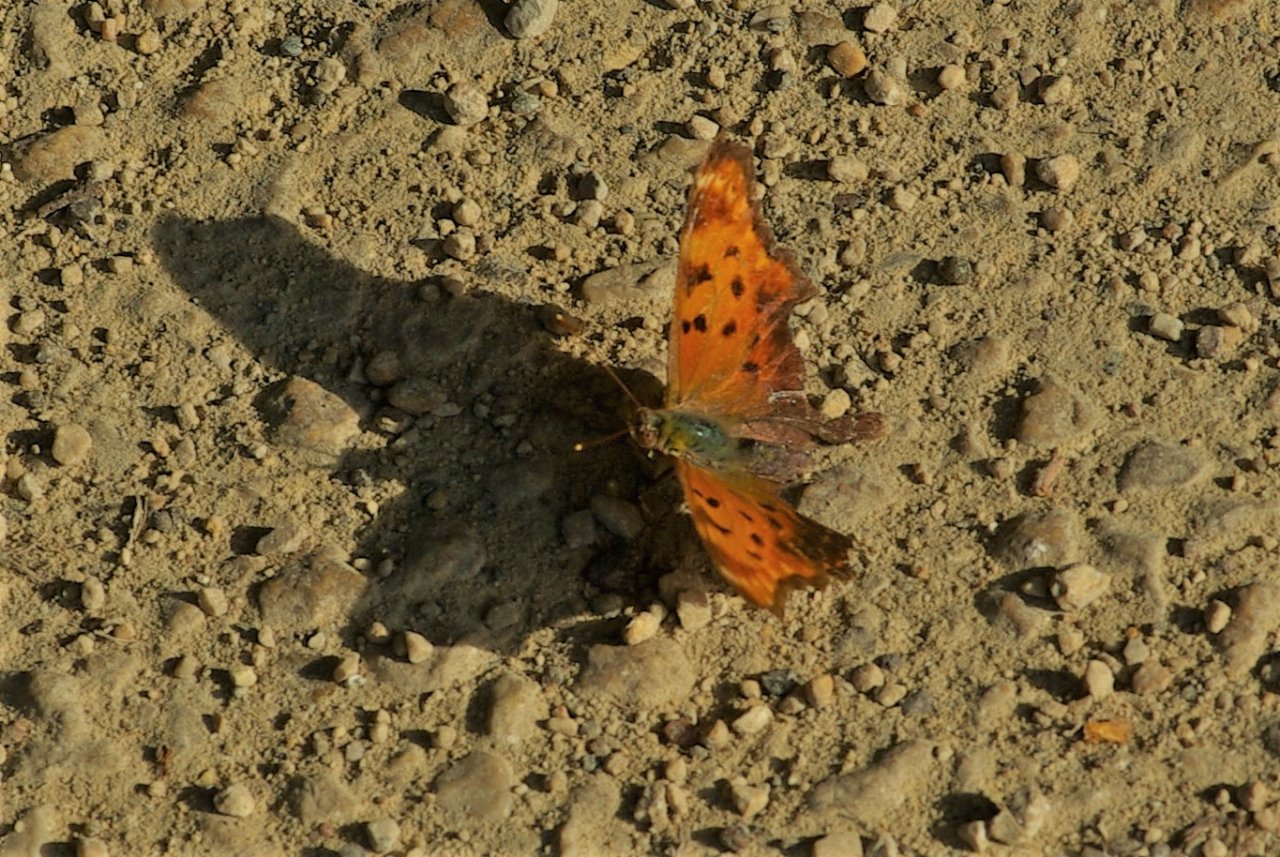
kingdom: Animalia
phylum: Arthropoda
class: Insecta
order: Lepidoptera
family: Nymphalidae
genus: Polygonia
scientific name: Polygonia comma
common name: Eastern Comma
